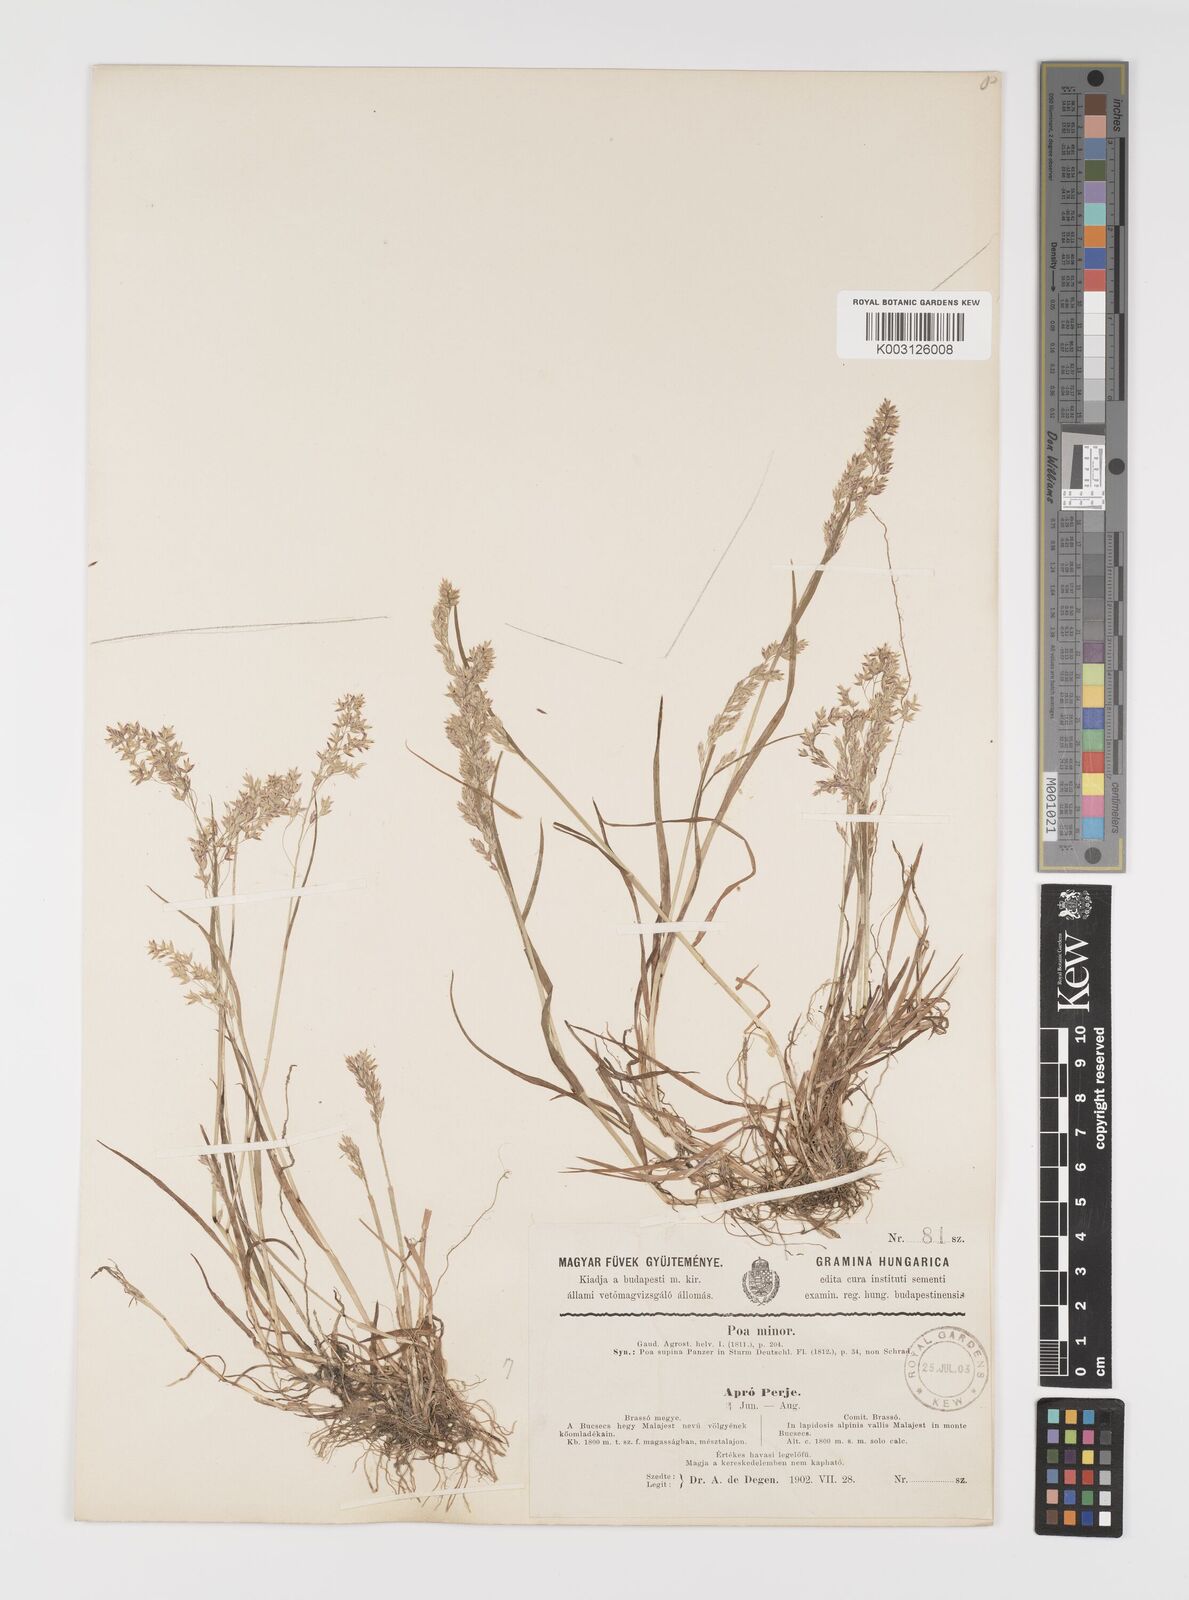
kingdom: Plantae
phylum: Tracheophyta
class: Liliopsida
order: Poales
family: Poaceae
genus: Poa
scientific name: Poa minor
